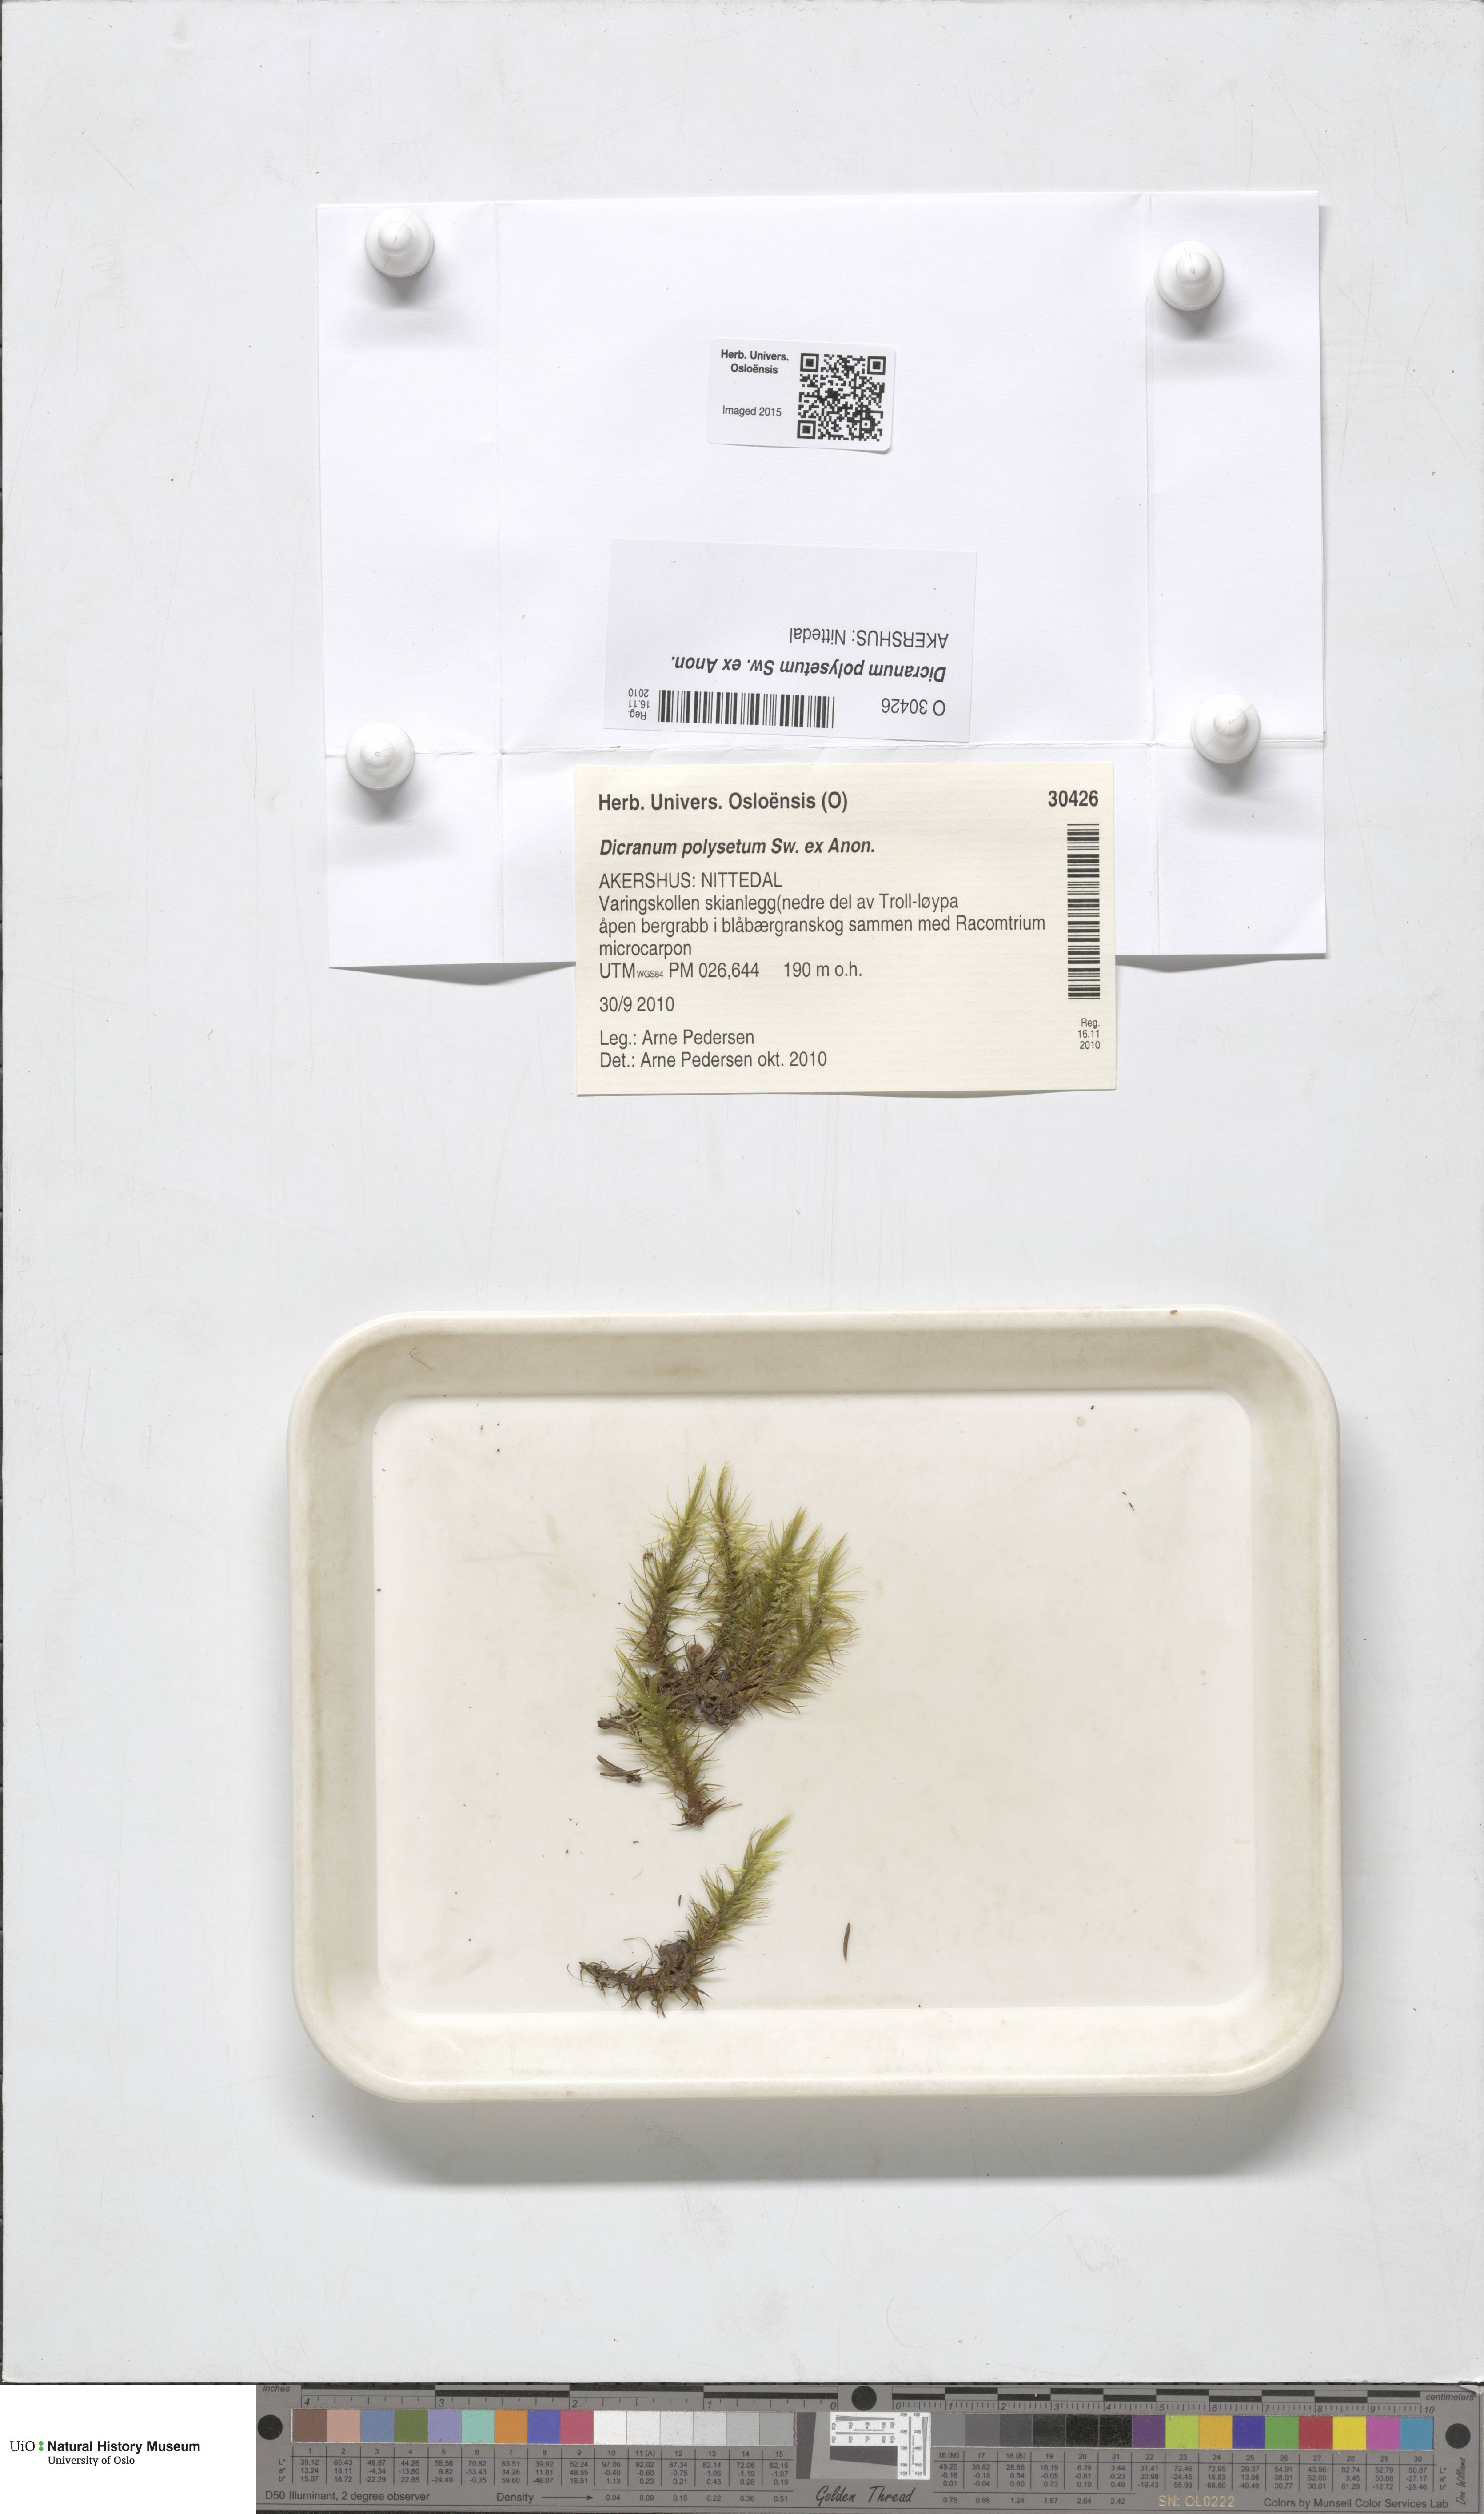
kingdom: Plantae
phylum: Bryophyta
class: Bryopsida
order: Dicranales
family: Dicranaceae
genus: Dicranum
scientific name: Dicranum polysetum
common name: Rugose fork-moss
